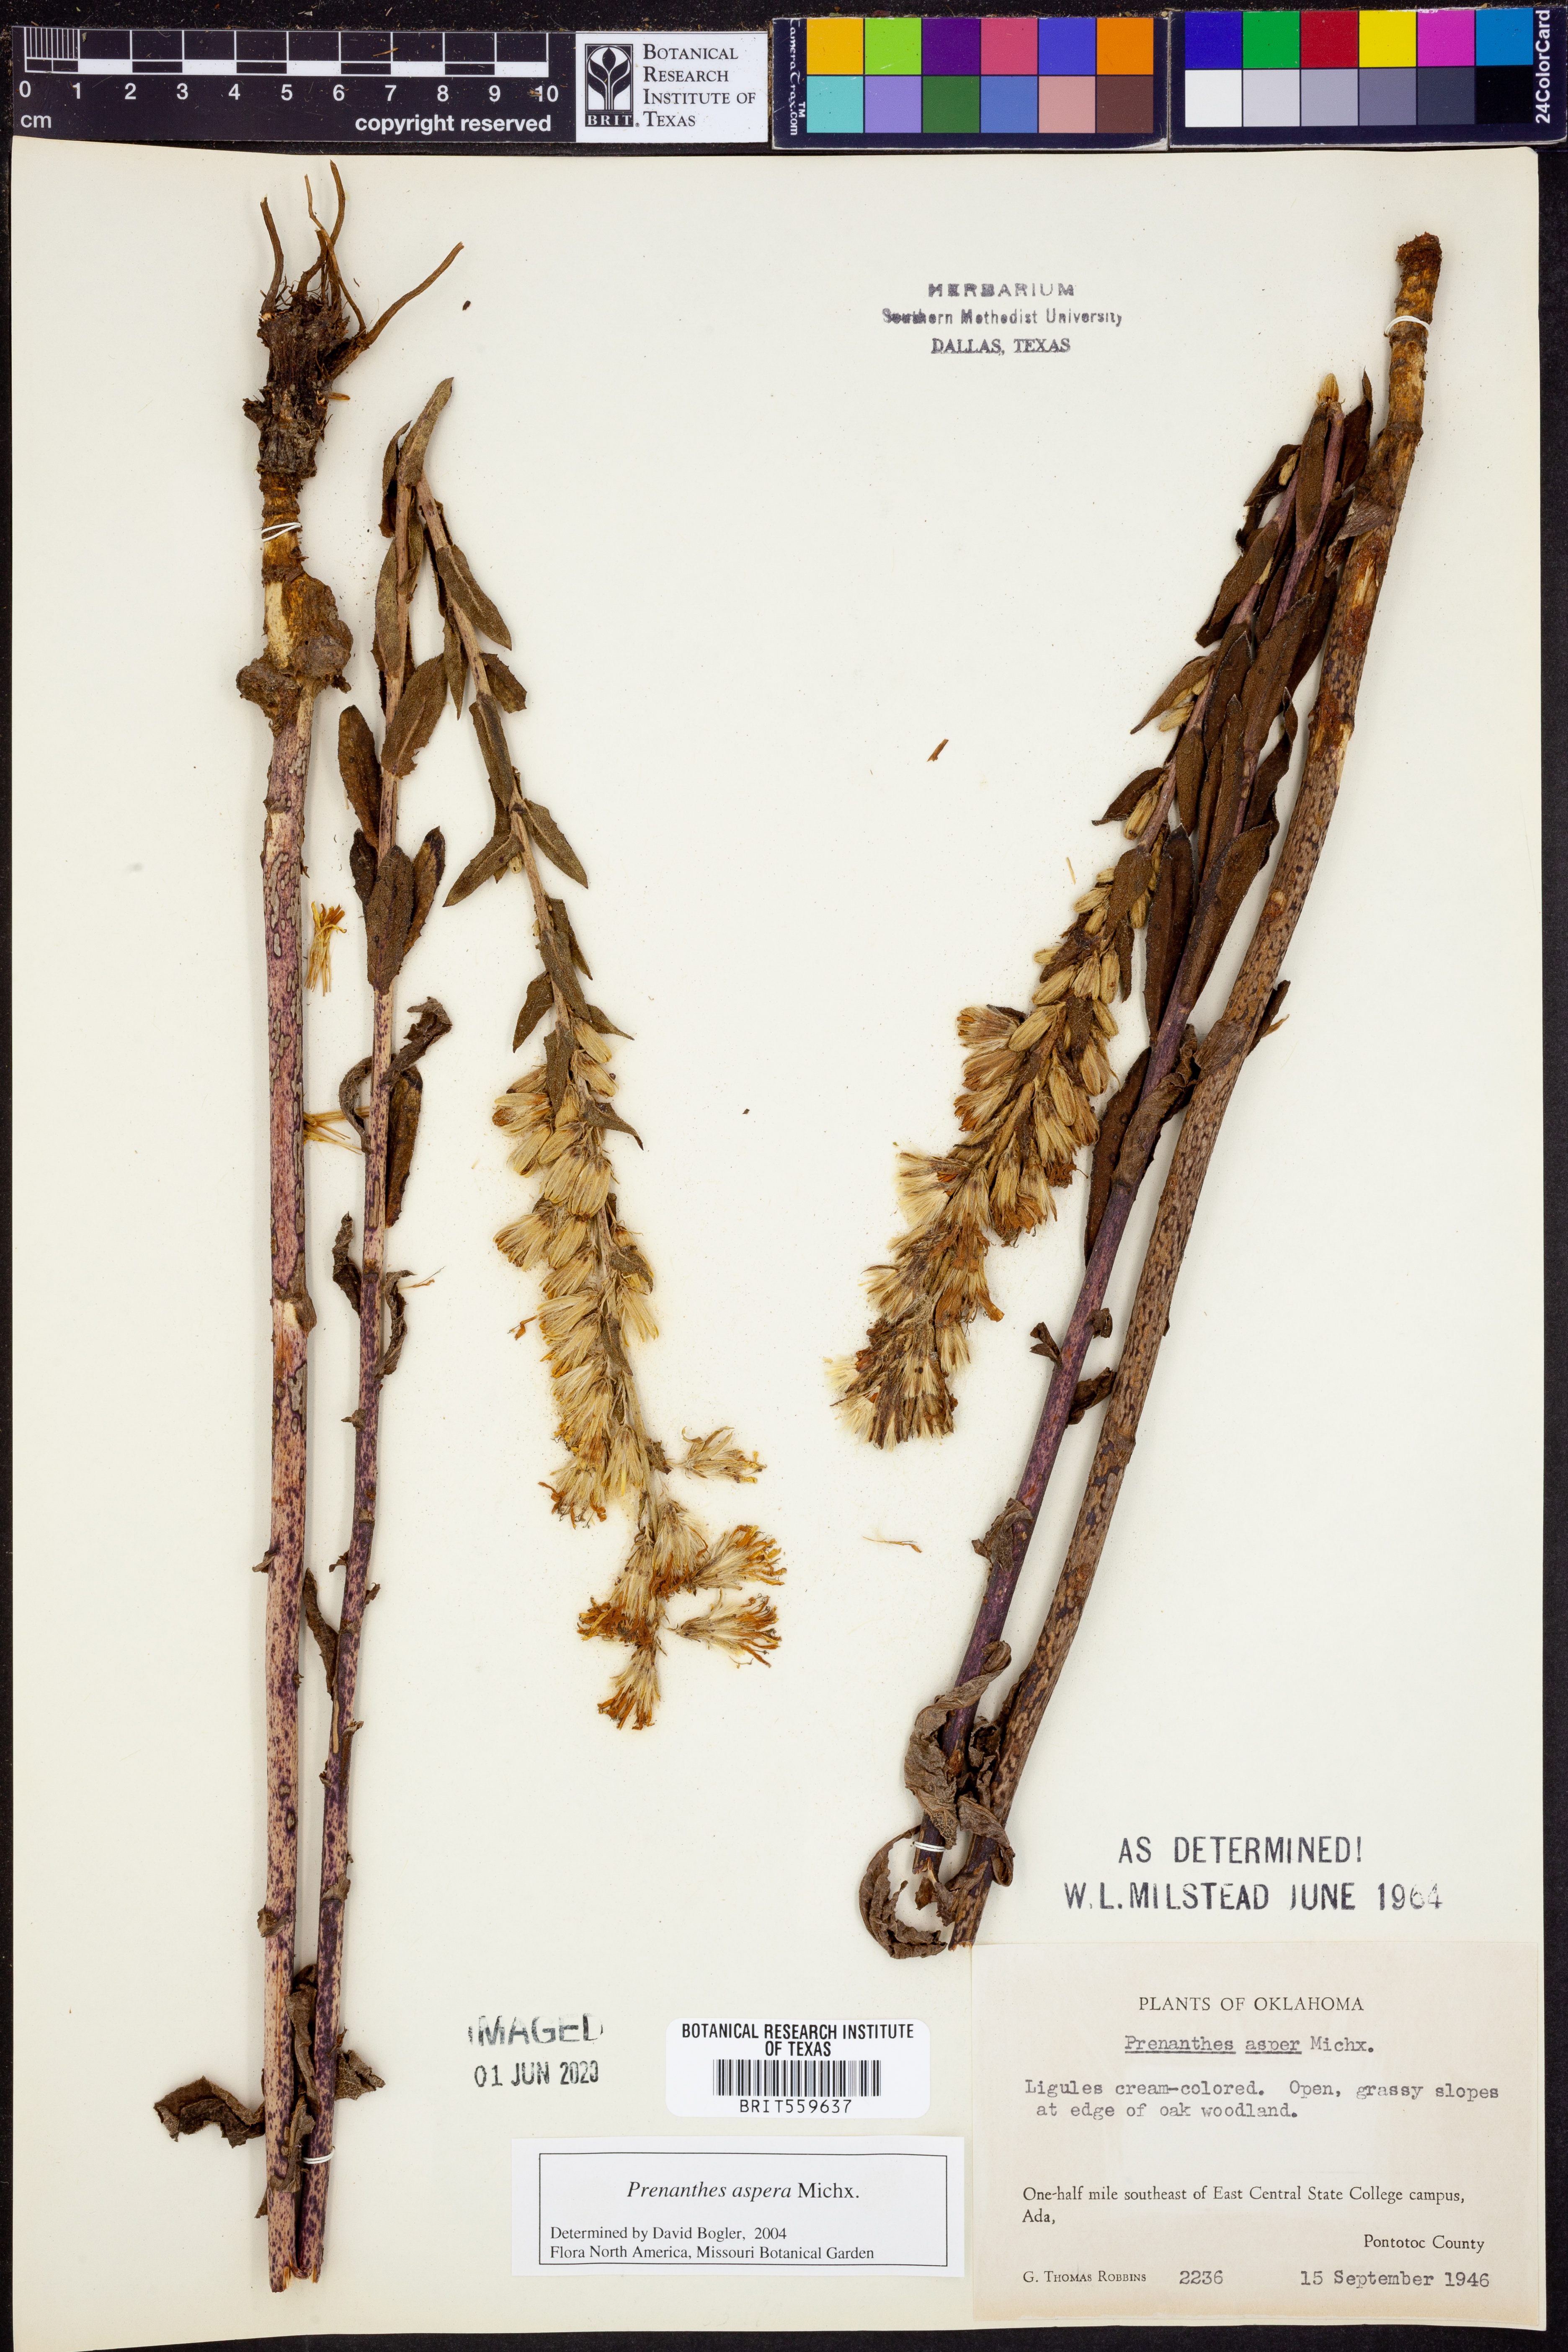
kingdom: Plantae
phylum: Tracheophyta
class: Magnoliopsida
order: Asterales
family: Asteraceae
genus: Nabalus
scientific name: Nabalus asper
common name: Rough rattlesnakeroot
